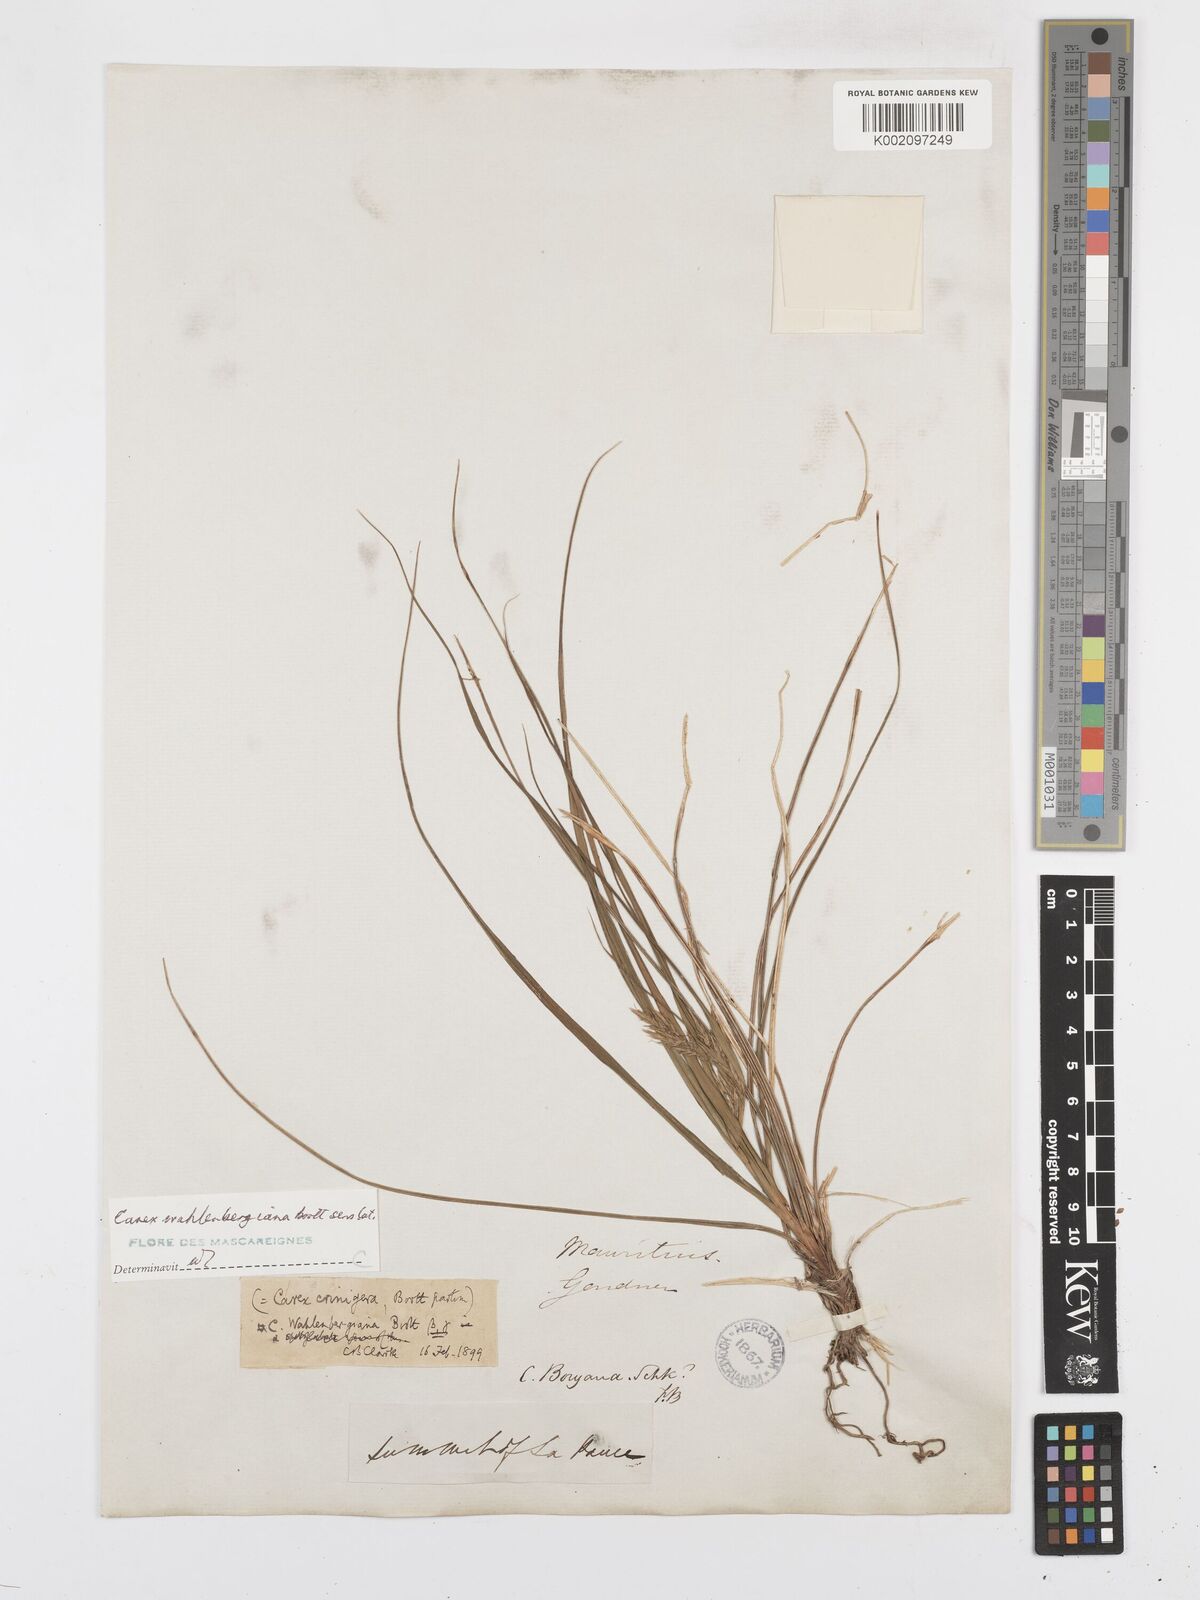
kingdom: Plantae
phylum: Tracheophyta
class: Liliopsida
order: Poales
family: Cyperaceae
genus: Carex
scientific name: Carex wahlenbergiana
